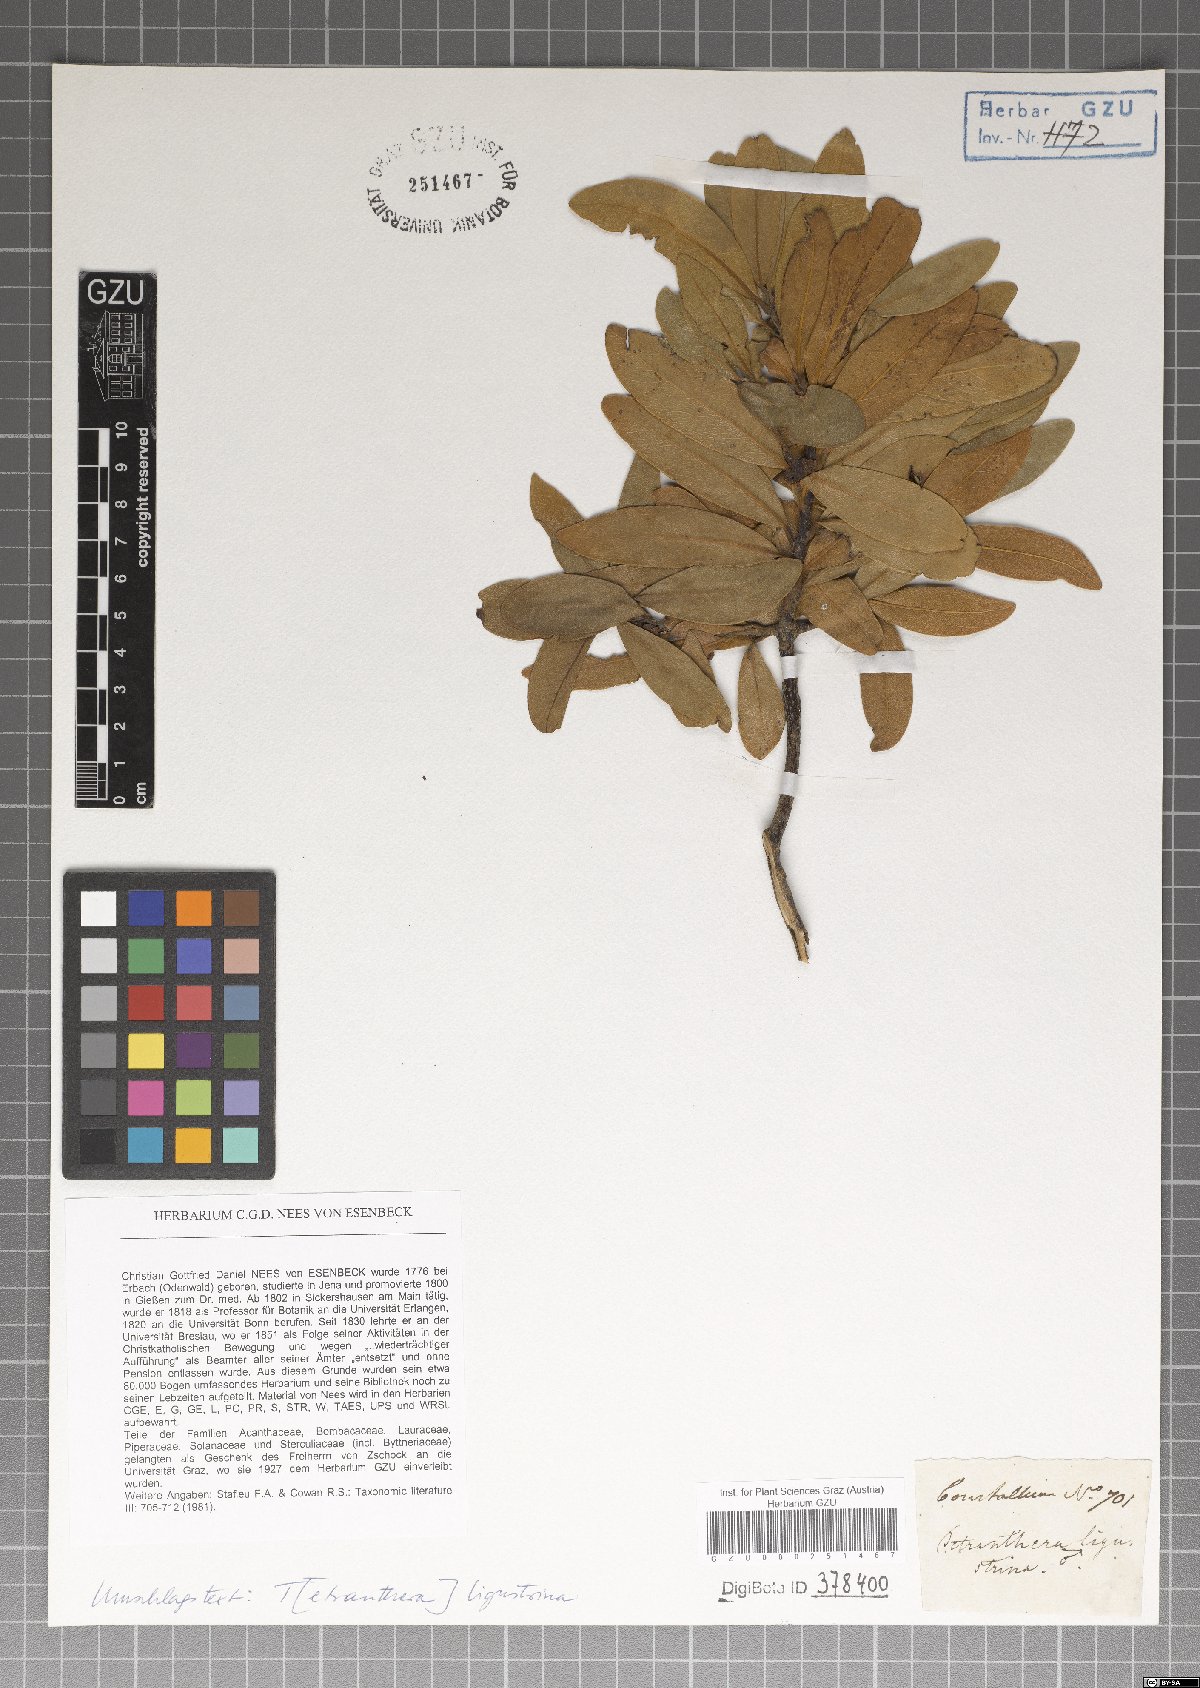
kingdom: Plantae
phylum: Tracheophyta
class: Magnoliopsida
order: Laurales
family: Lauraceae
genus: Litsea
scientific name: Litsea ligustrina
